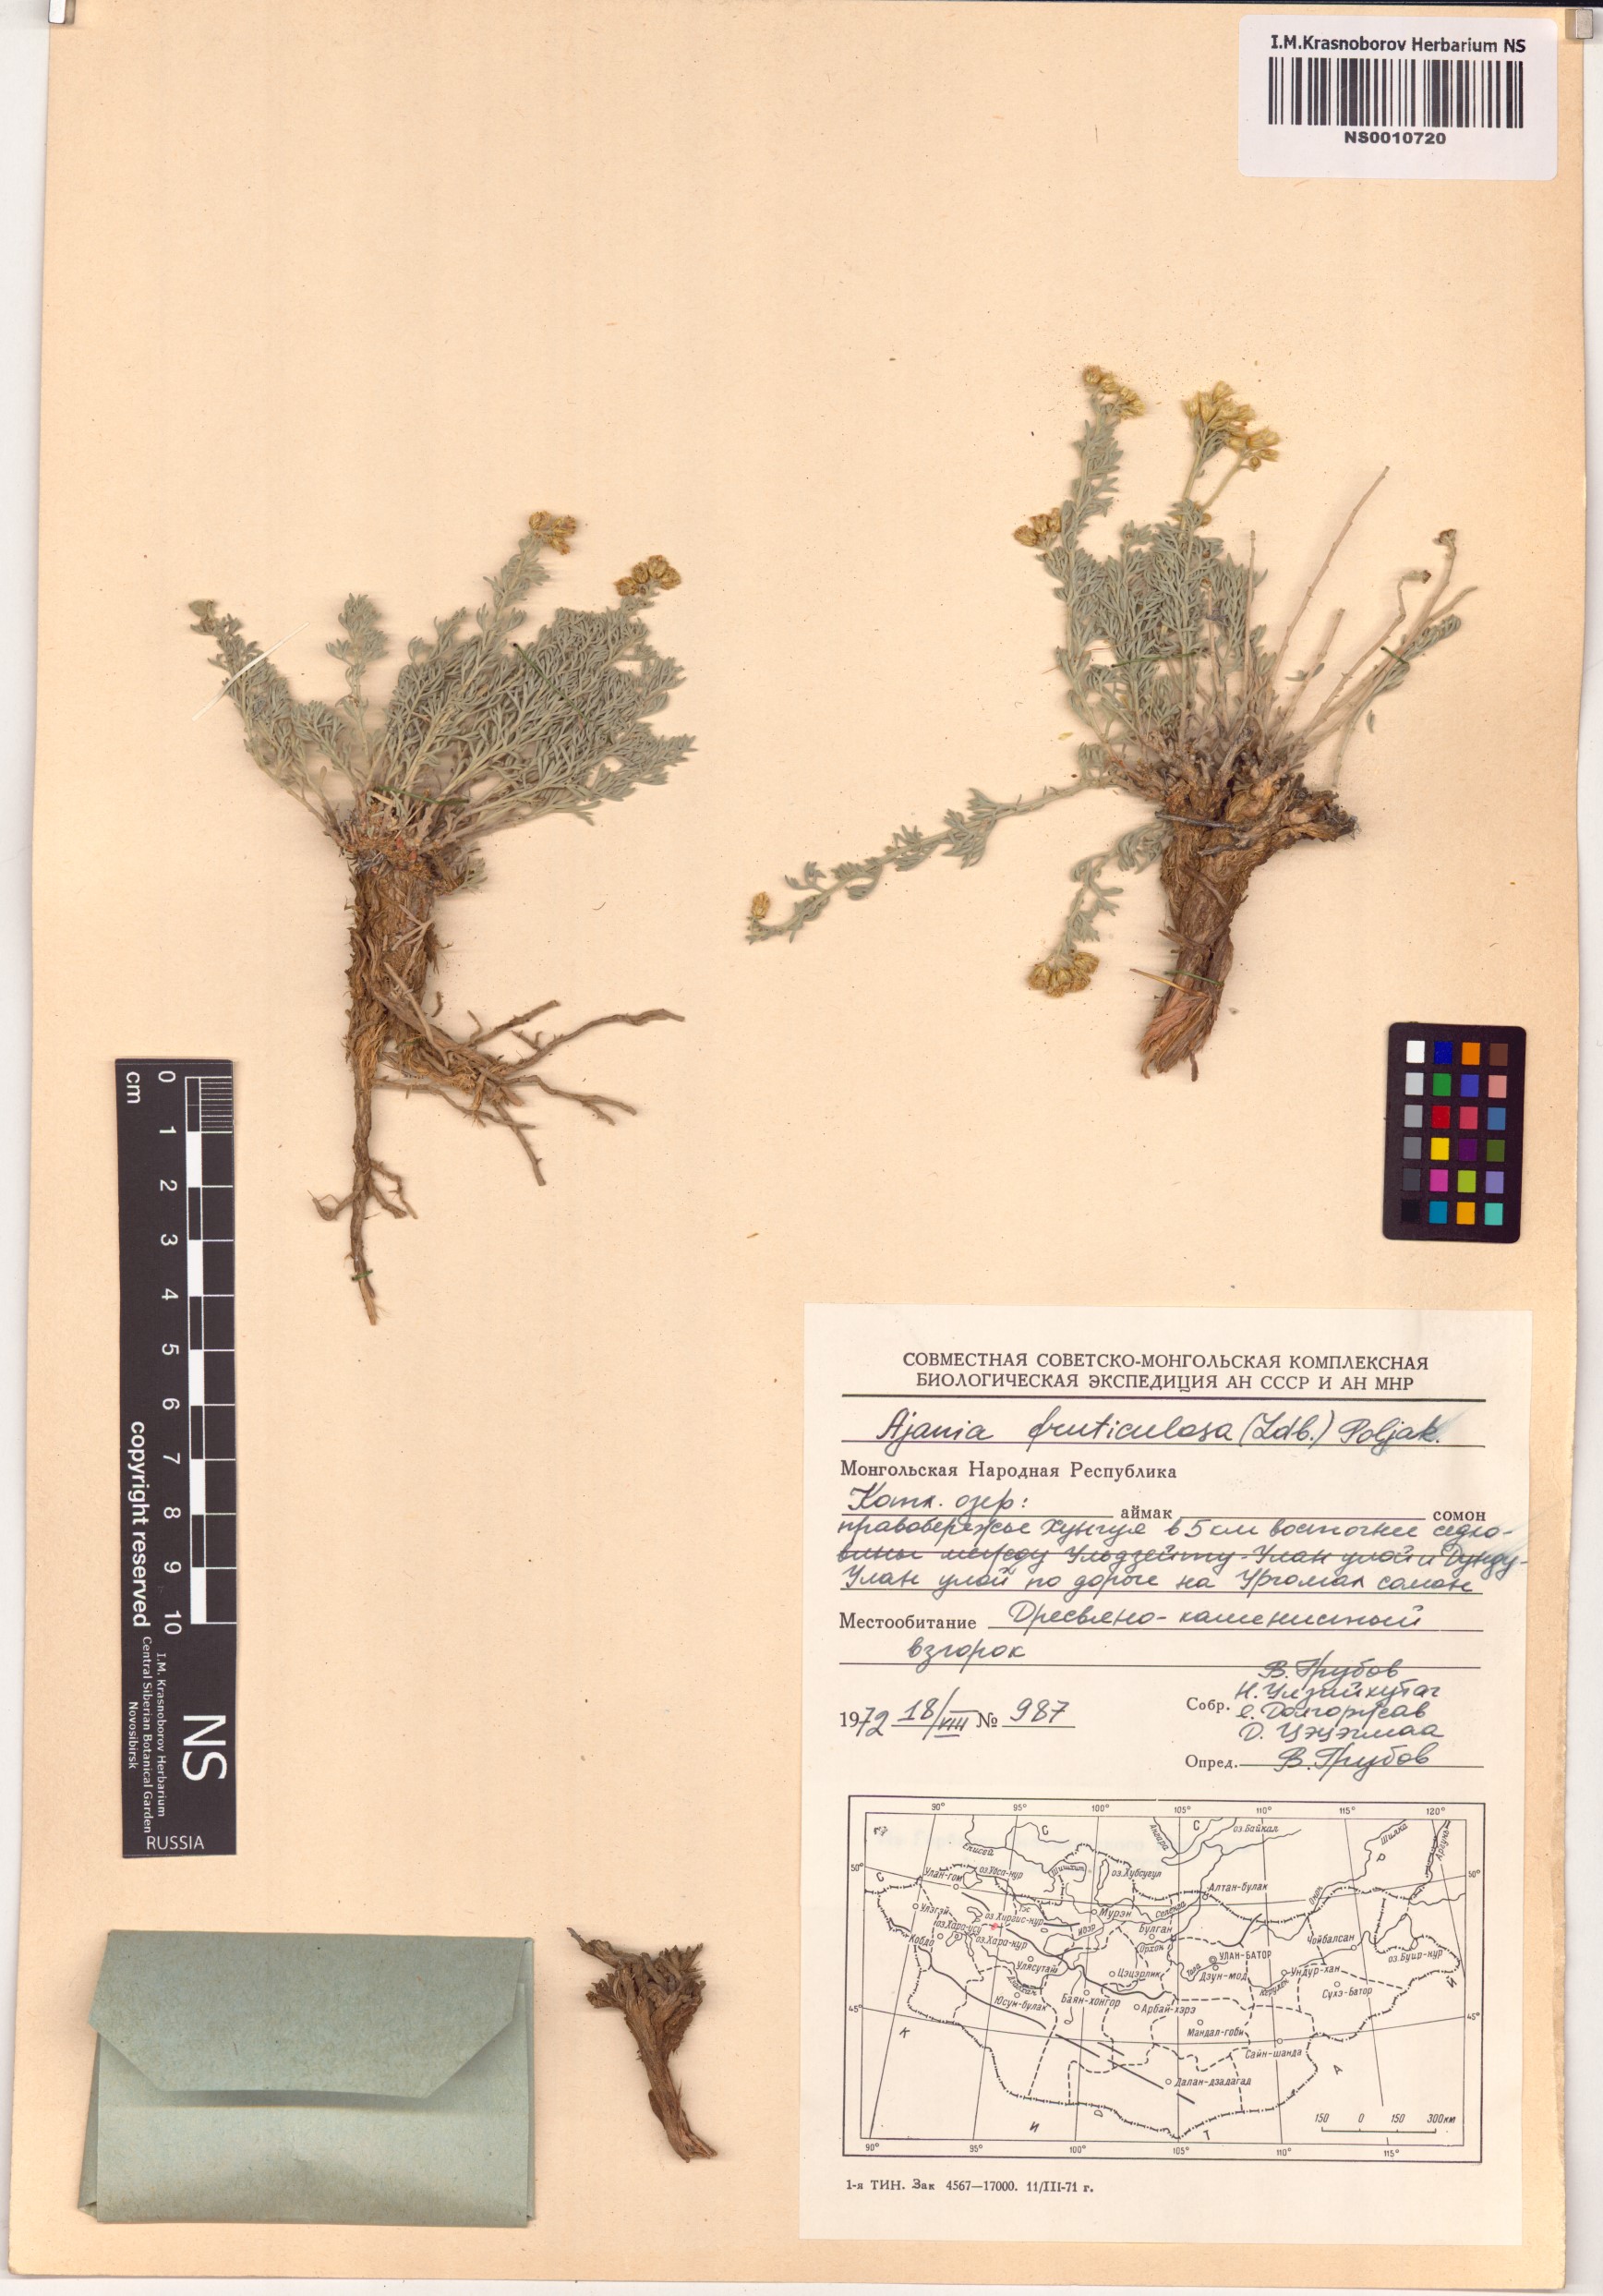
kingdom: Plantae
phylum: Tracheophyta
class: Magnoliopsida
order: Asterales
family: Asteraceae
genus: Ajania
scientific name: Ajania fruticulosa
